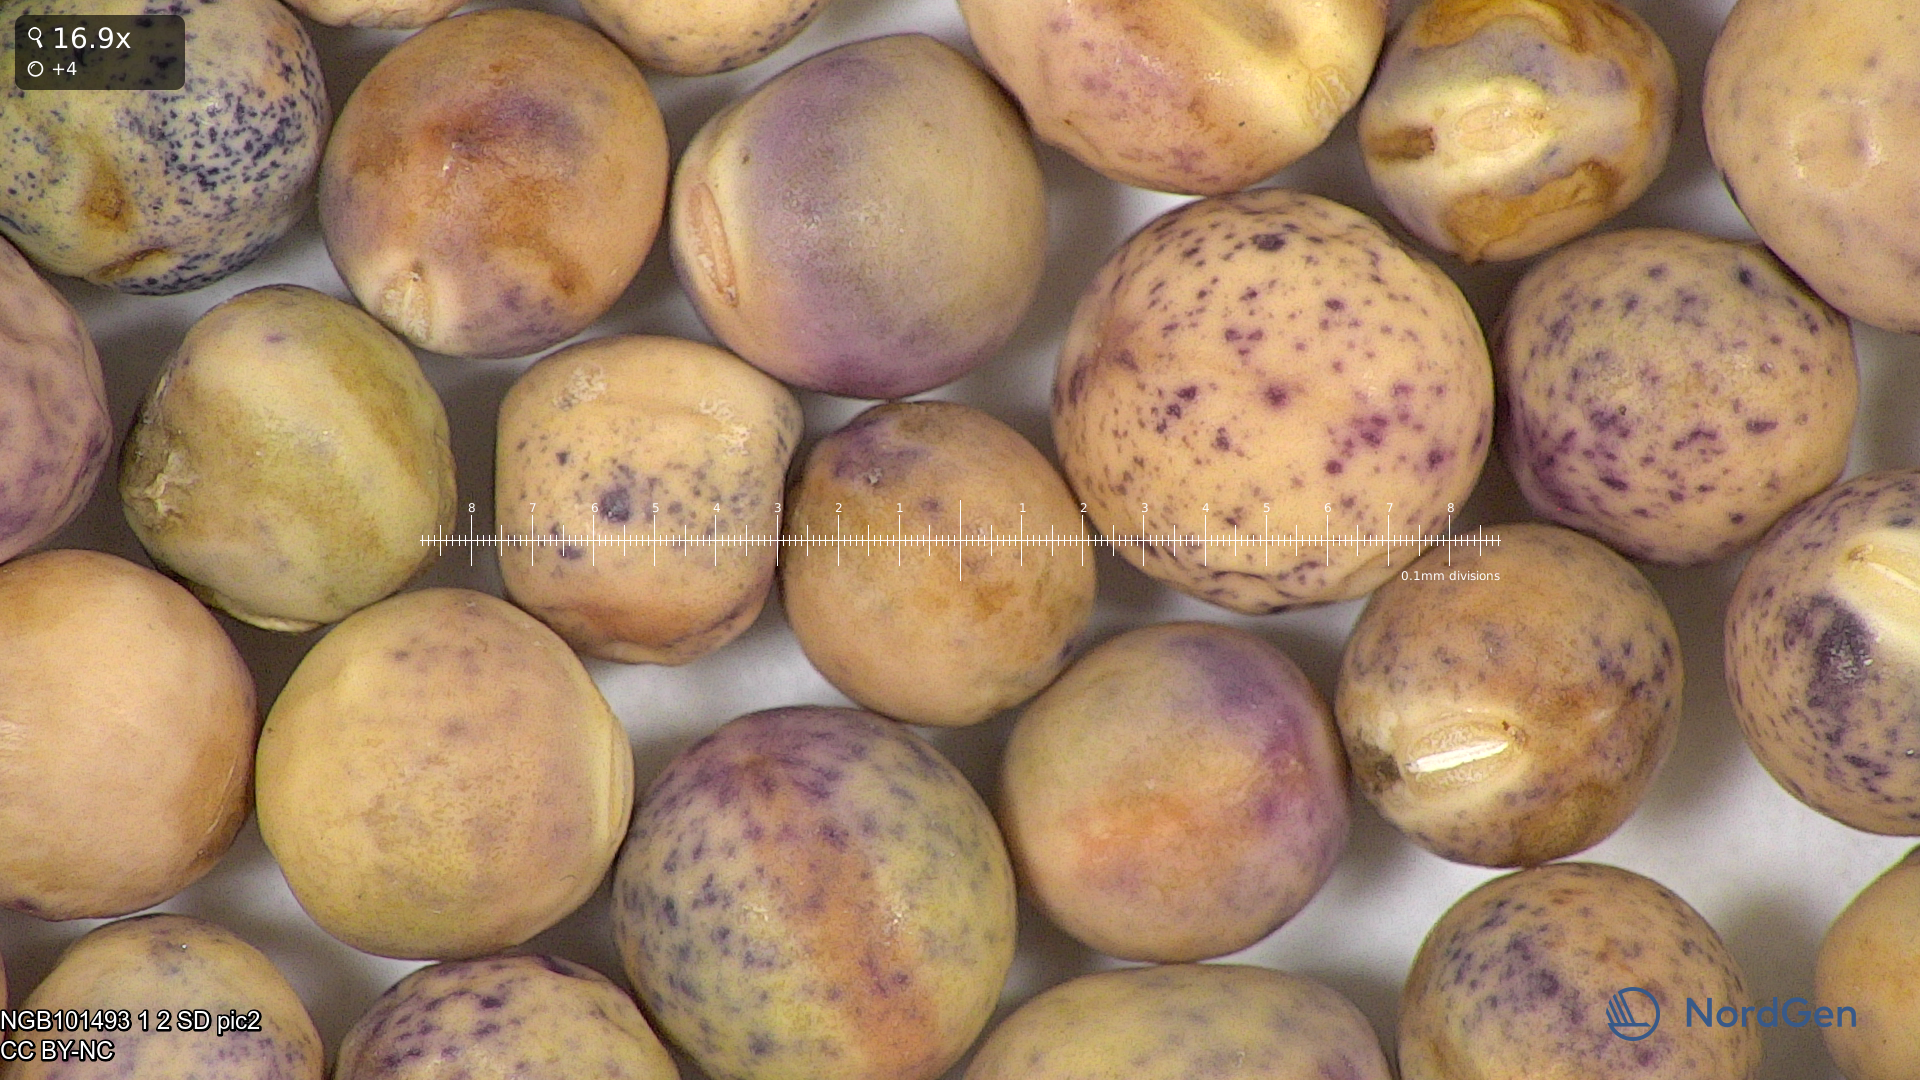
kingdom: Plantae
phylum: Tracheophyta
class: Magnoliopsida
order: Fabales
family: Fabaceae
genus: Lathyrus
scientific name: Lathyrus oleraceus
